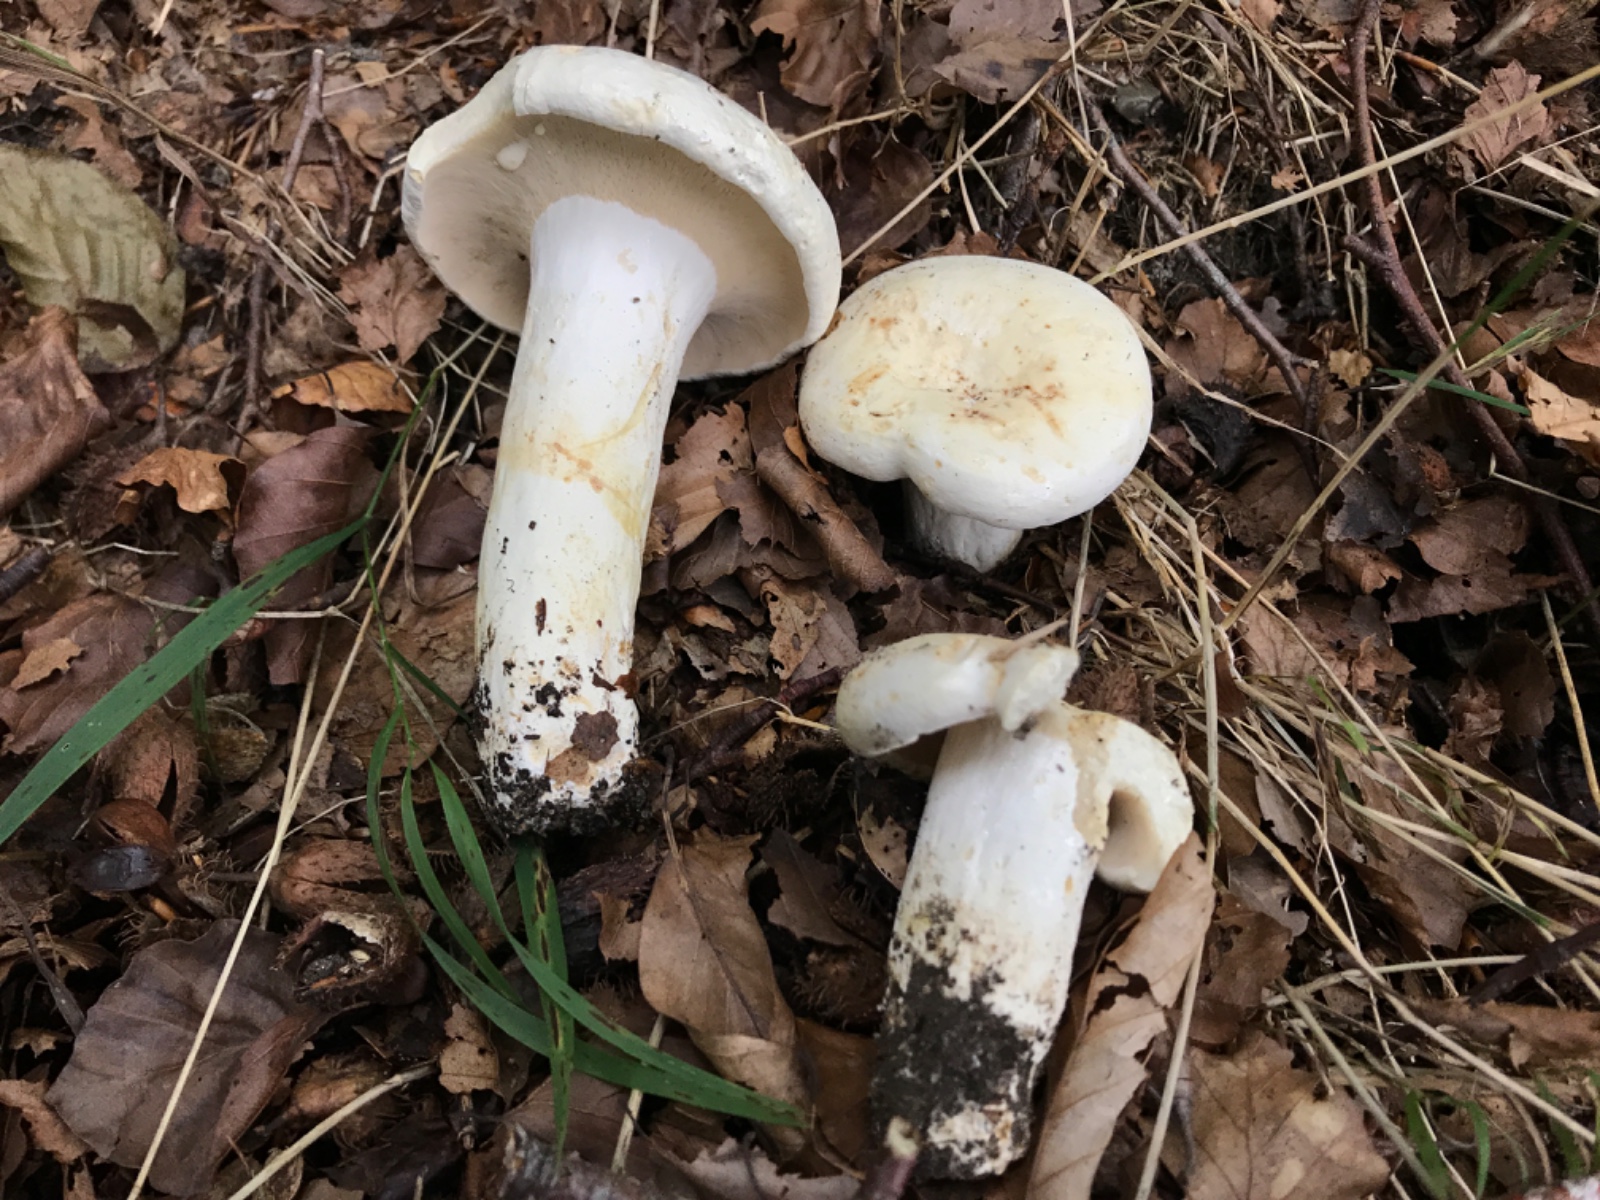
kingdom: Fungi
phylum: Basidiomycota
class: Agaricomycetes
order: Russulales
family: Russulaceae
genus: Lactifluus
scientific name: Lactifluus piperatus
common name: peber-mælkehat
